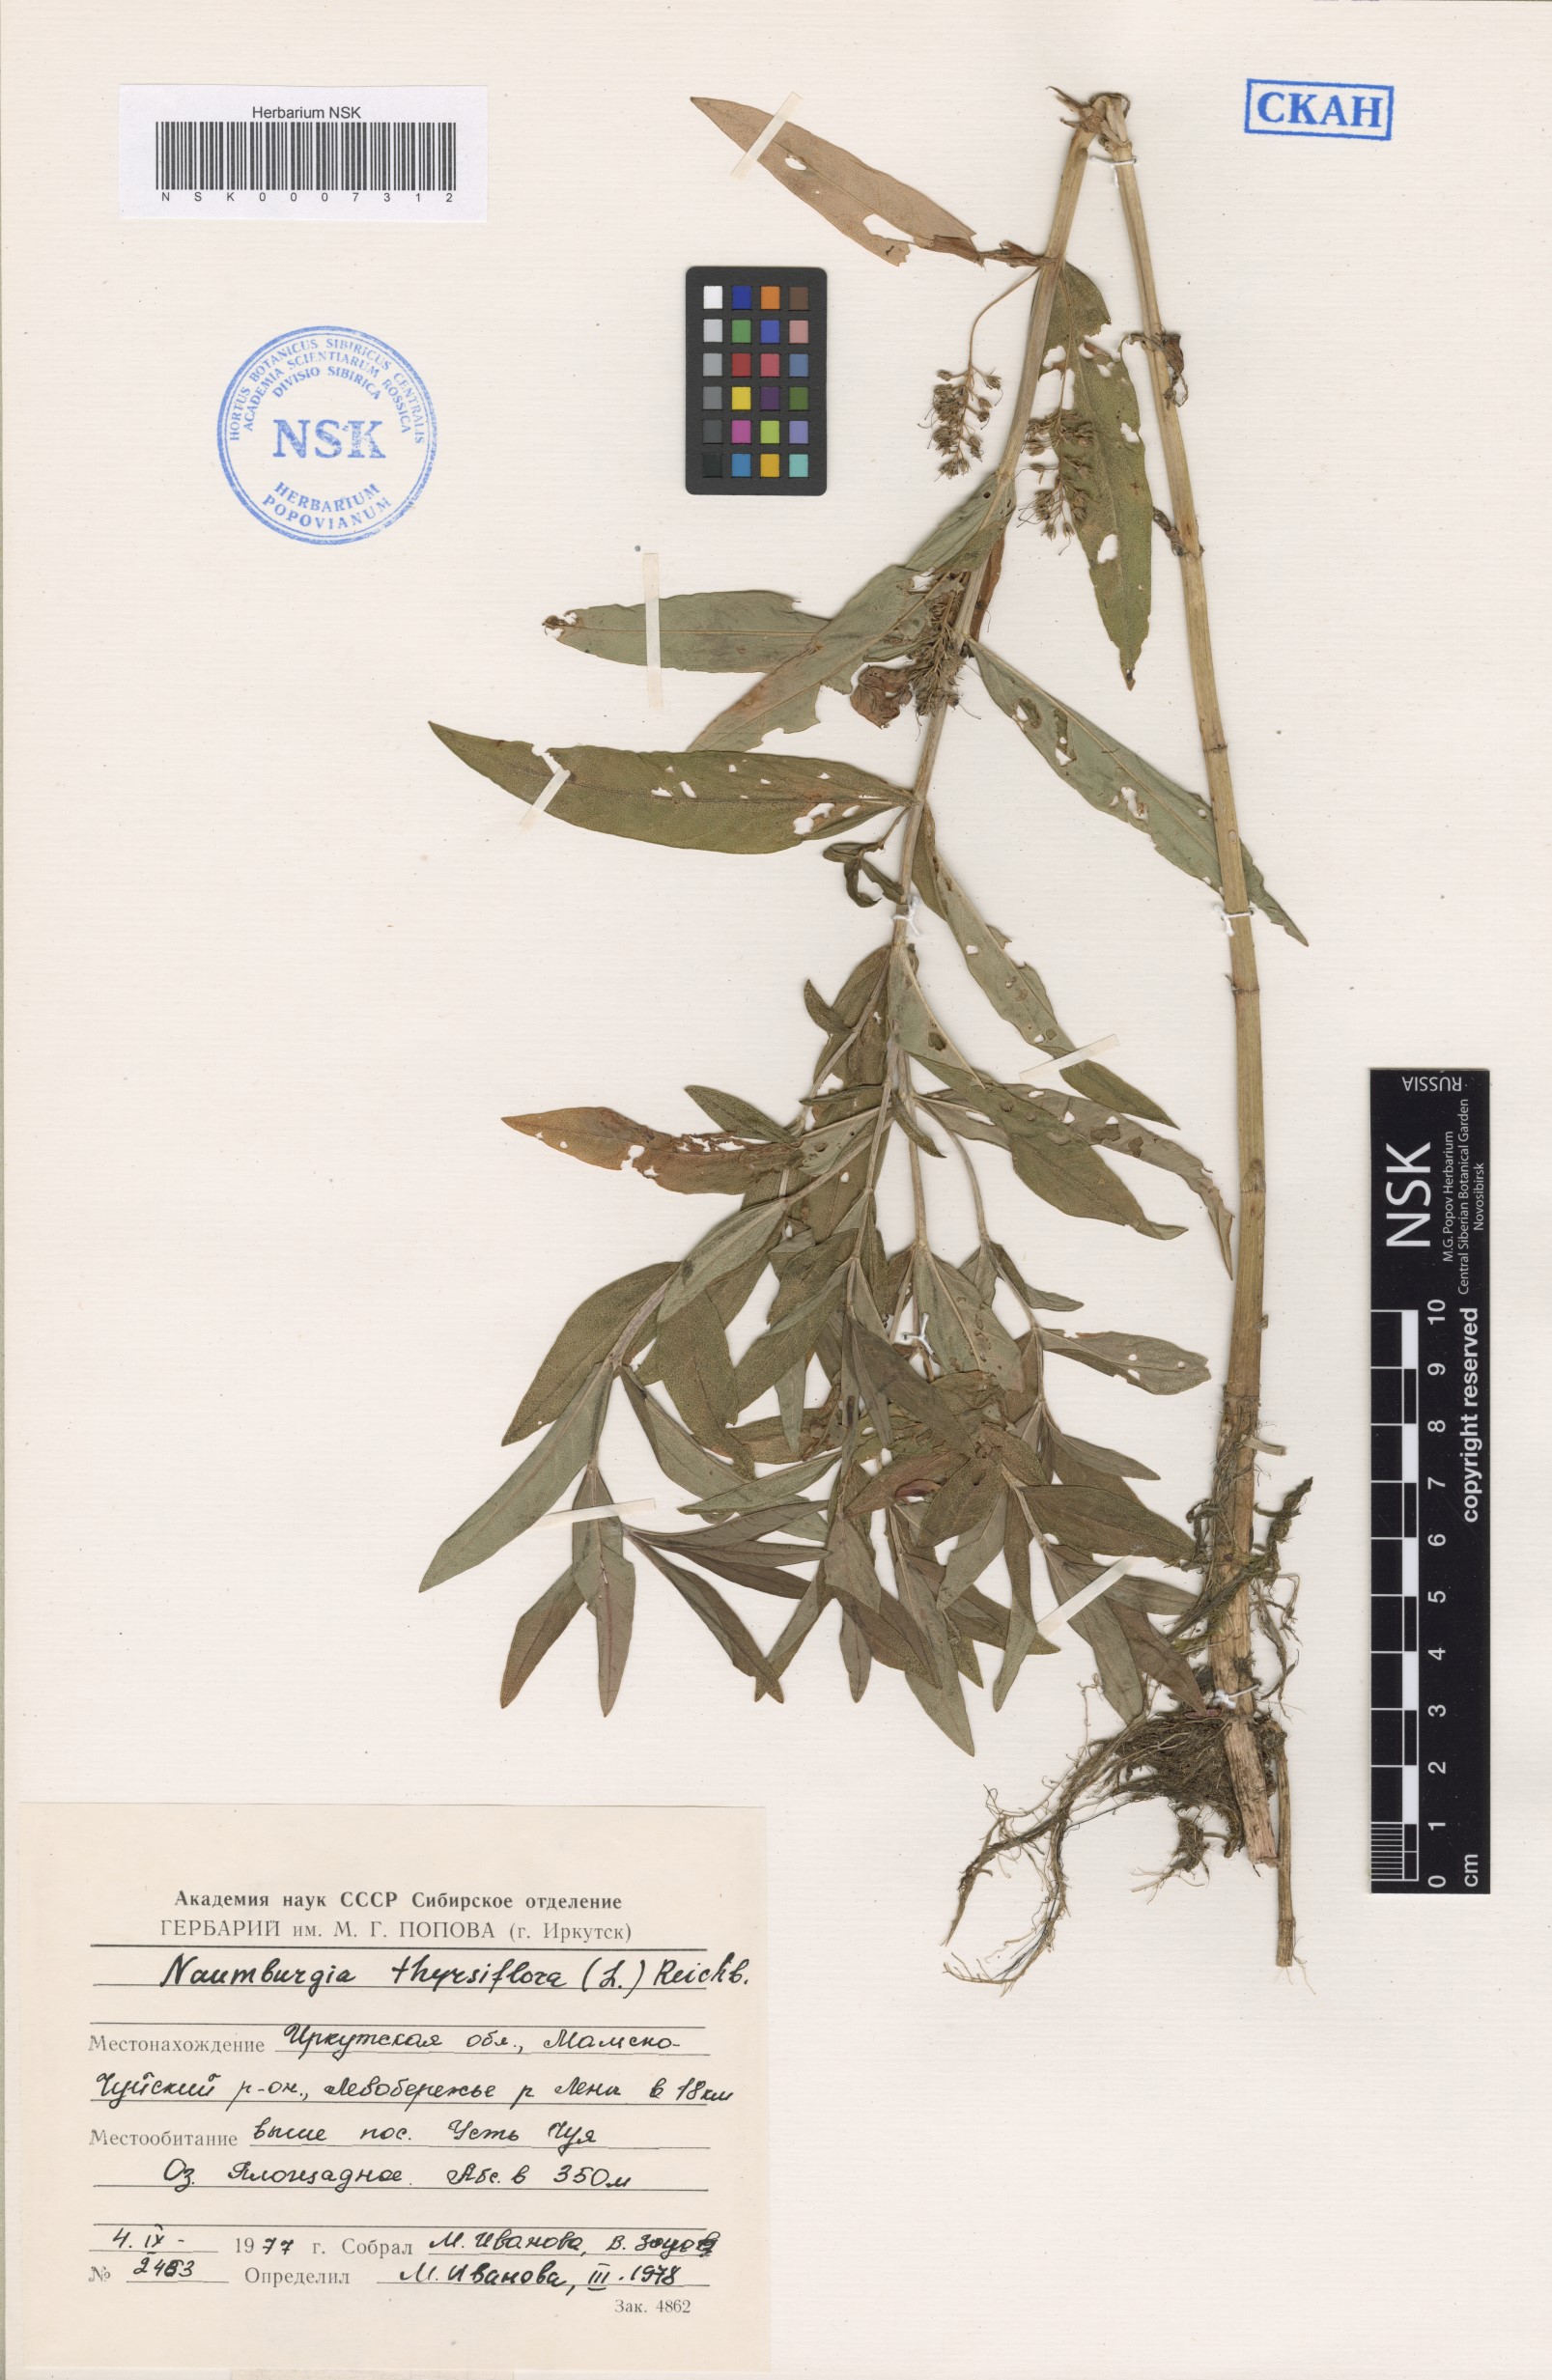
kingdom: Plantae
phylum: Tracheophyta
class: Magnoliopsida
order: Ericales
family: Primulaceae
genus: Lysimachia
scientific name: Lysimachia thyrsiflora
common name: Tufted loosestrife
